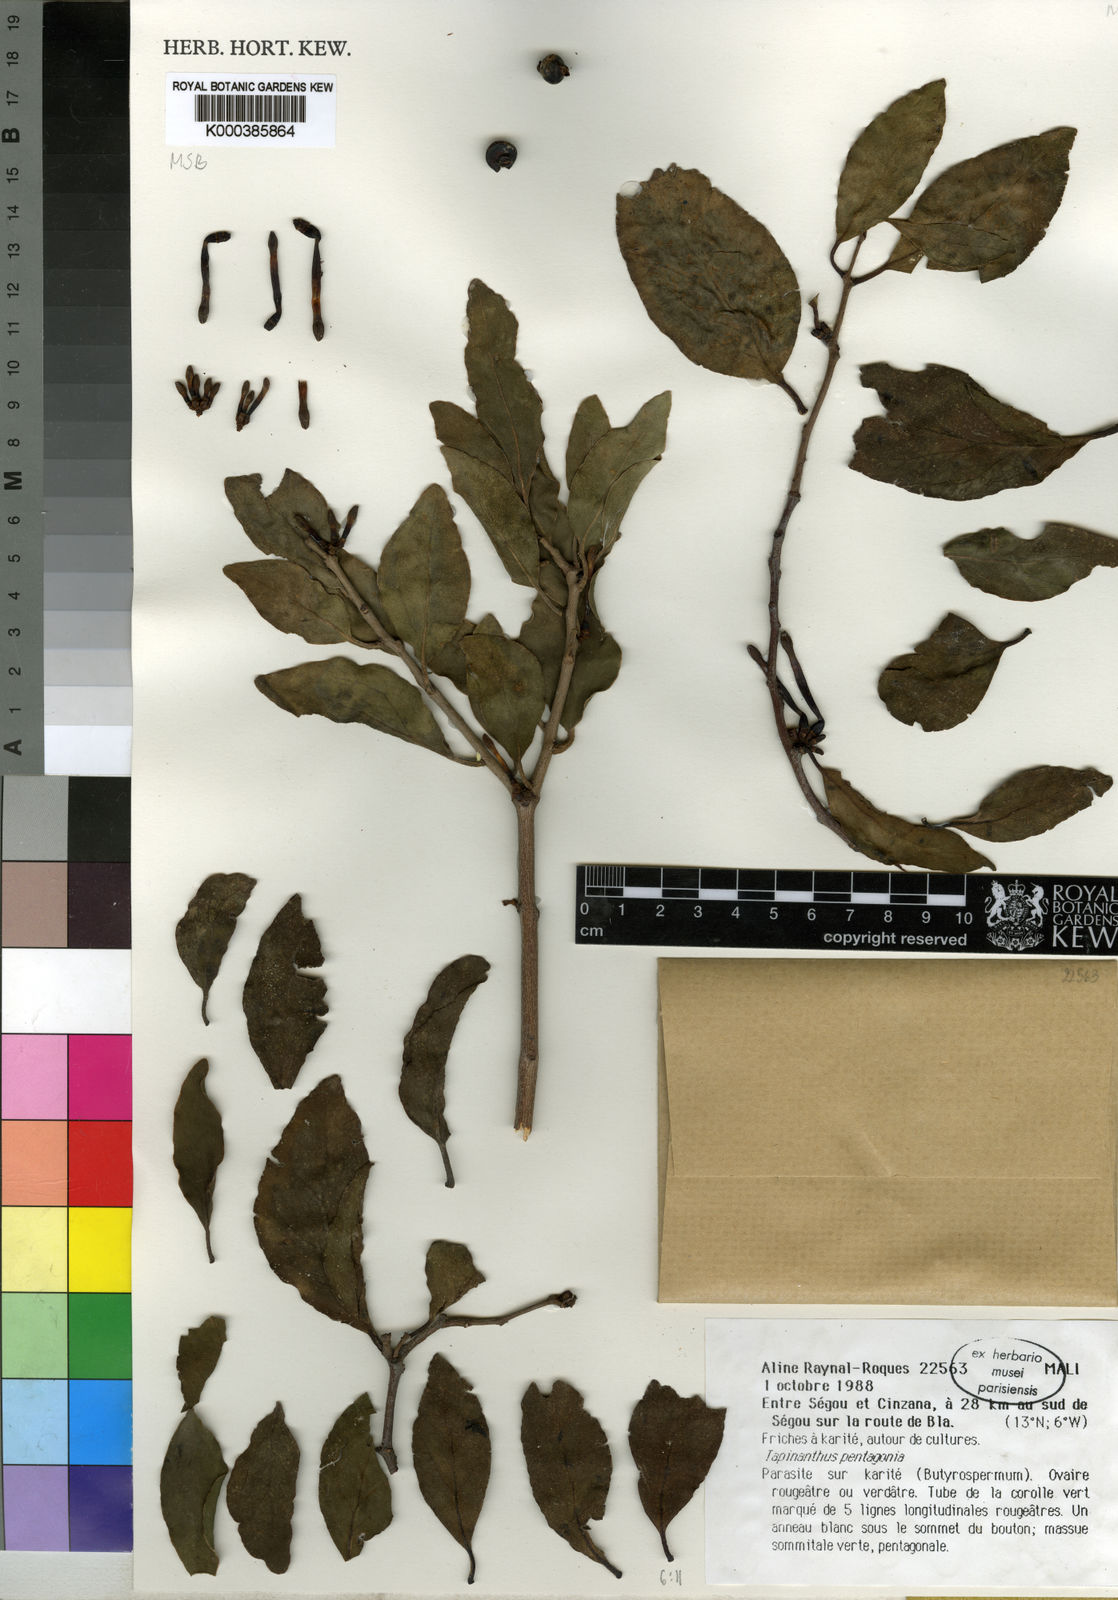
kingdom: Plantae
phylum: Tracheophyta
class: Magnoliopsida
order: Santalales
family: Loranthaceae
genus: Tapinanthus
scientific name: Tapinanthus pentagonia
